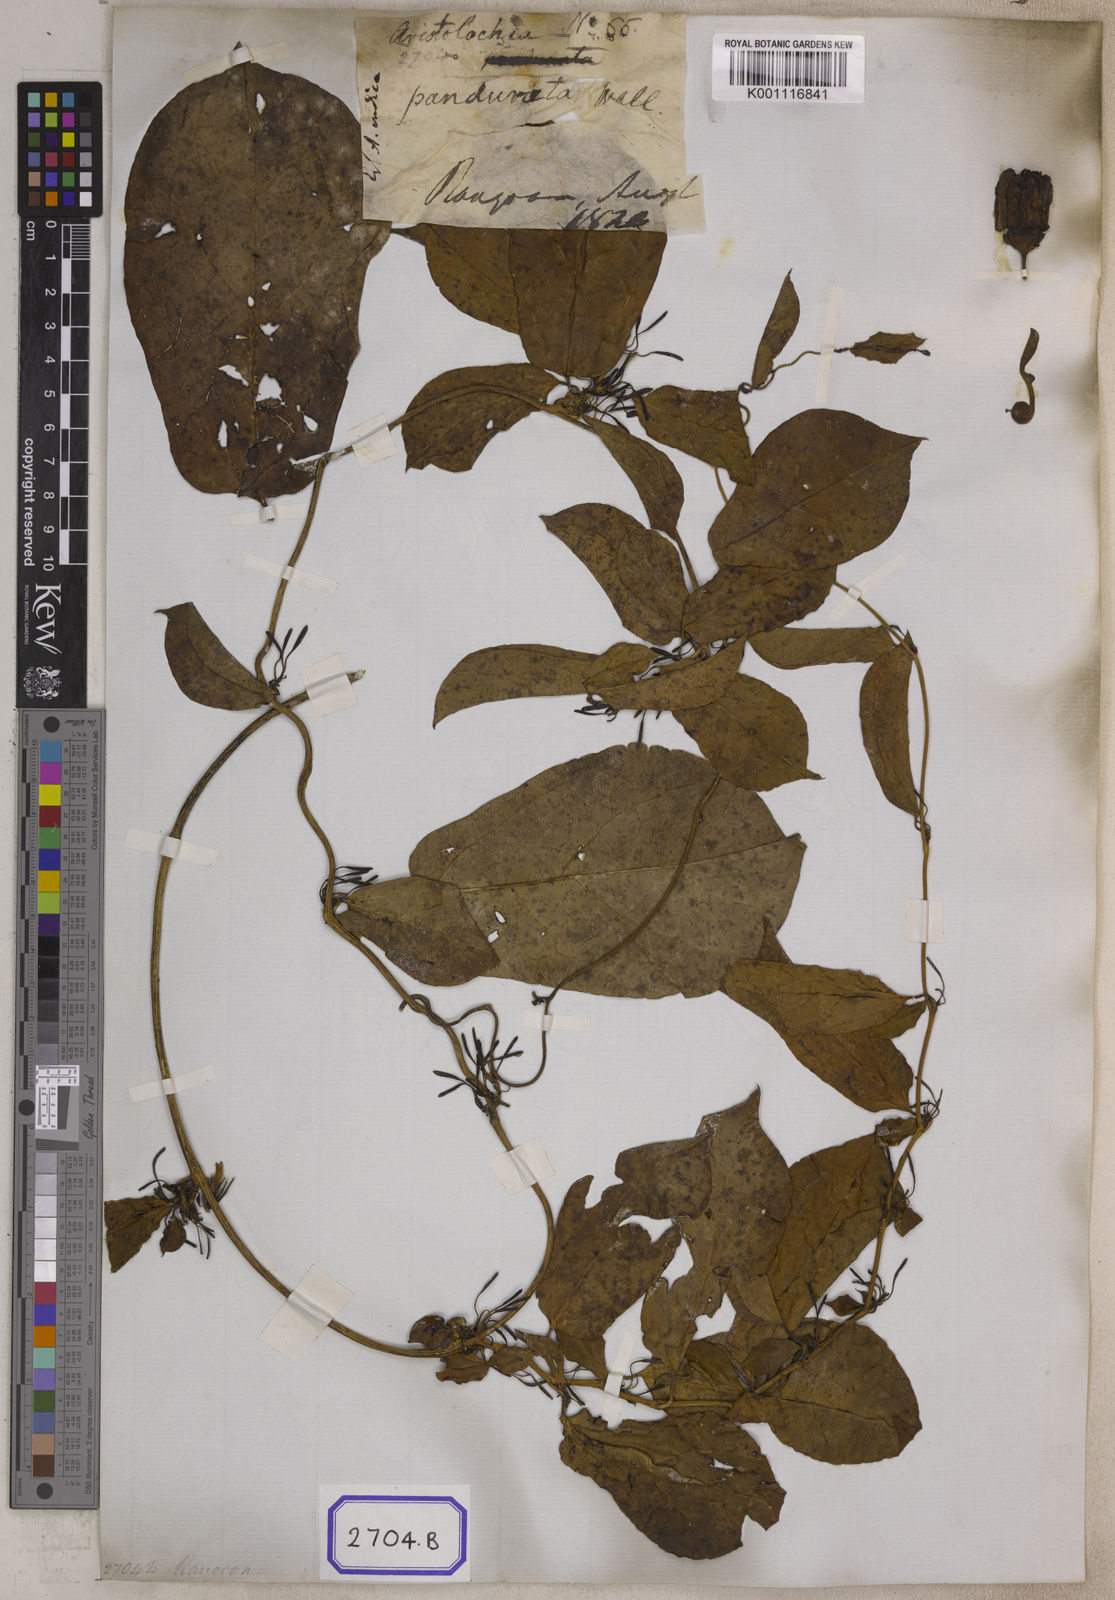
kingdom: Plantae
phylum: Tracheophyta
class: Magnoliopsida
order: Piperales
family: Aristolochiaceae
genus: Aristolochia
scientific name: Aristolochia indica
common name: Indian birthwort
